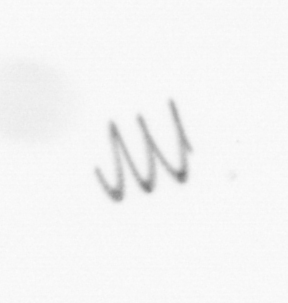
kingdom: Chromista
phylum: Ochrophyta
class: Bacillariophyceae
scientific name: Bacillariophyceae
